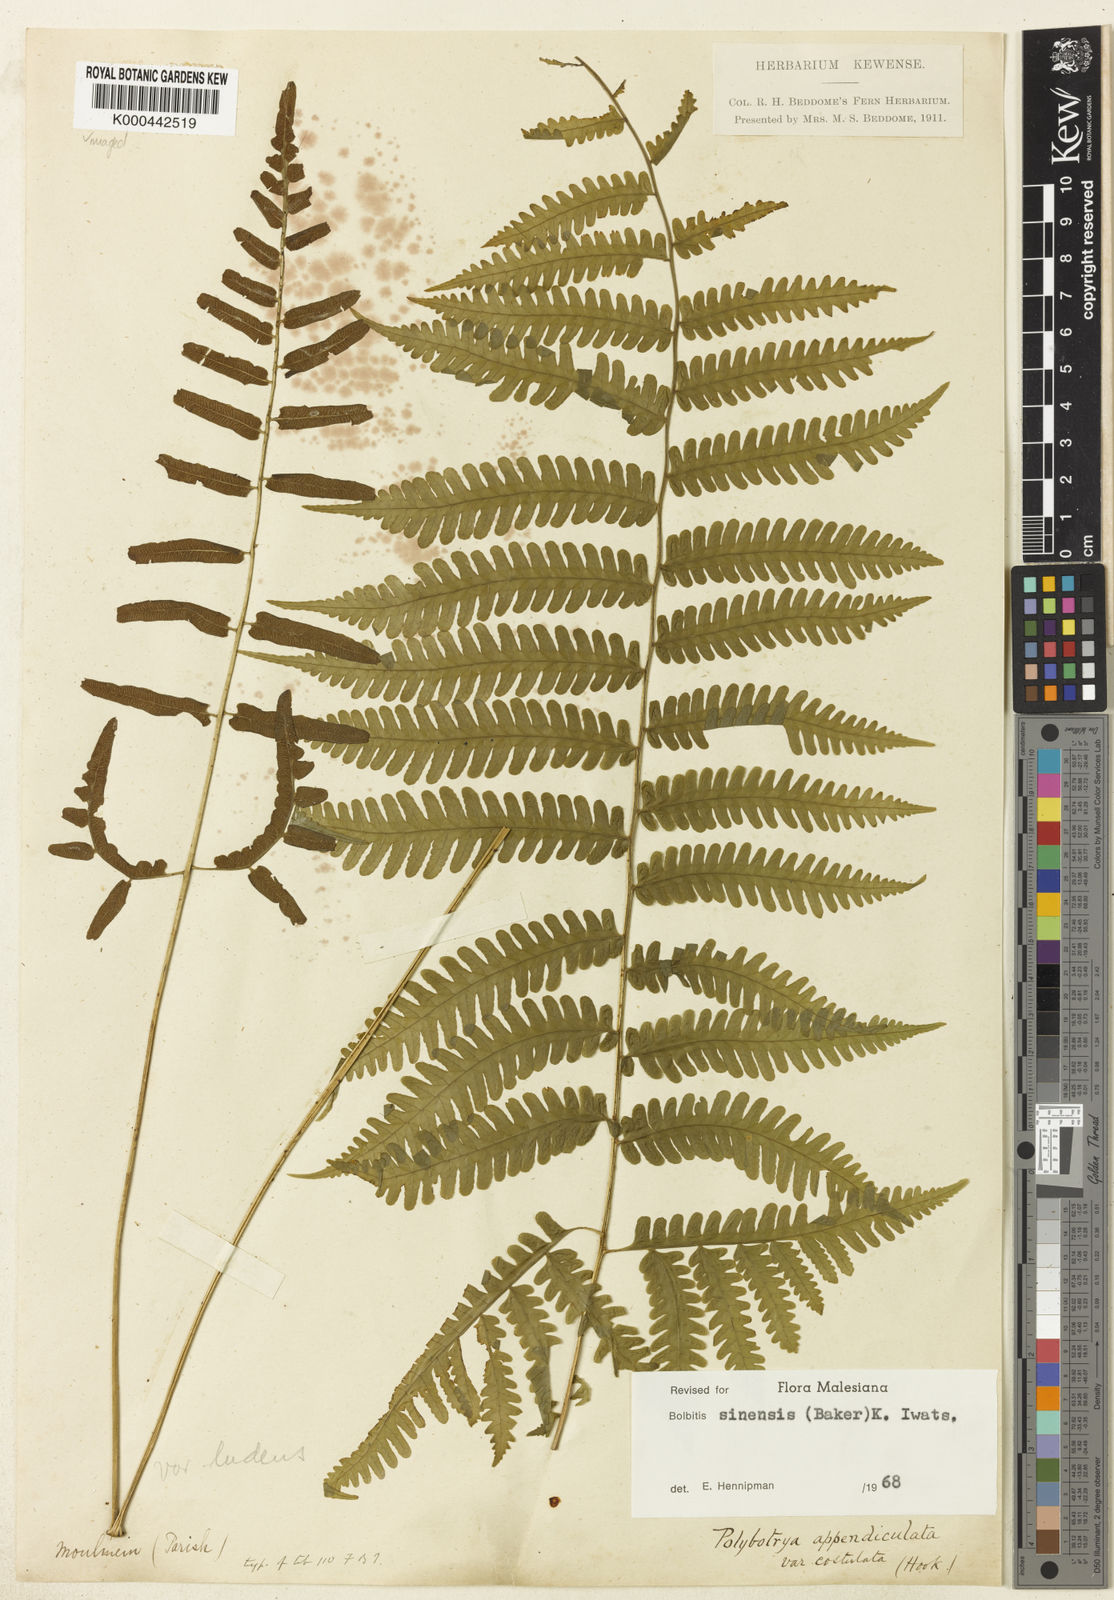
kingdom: Plantae
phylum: Tracheophyta
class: Polypodiopsida
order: Polypodiales
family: Dryopteridaceae
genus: Bolbitis
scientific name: Bolbitis sinensis
